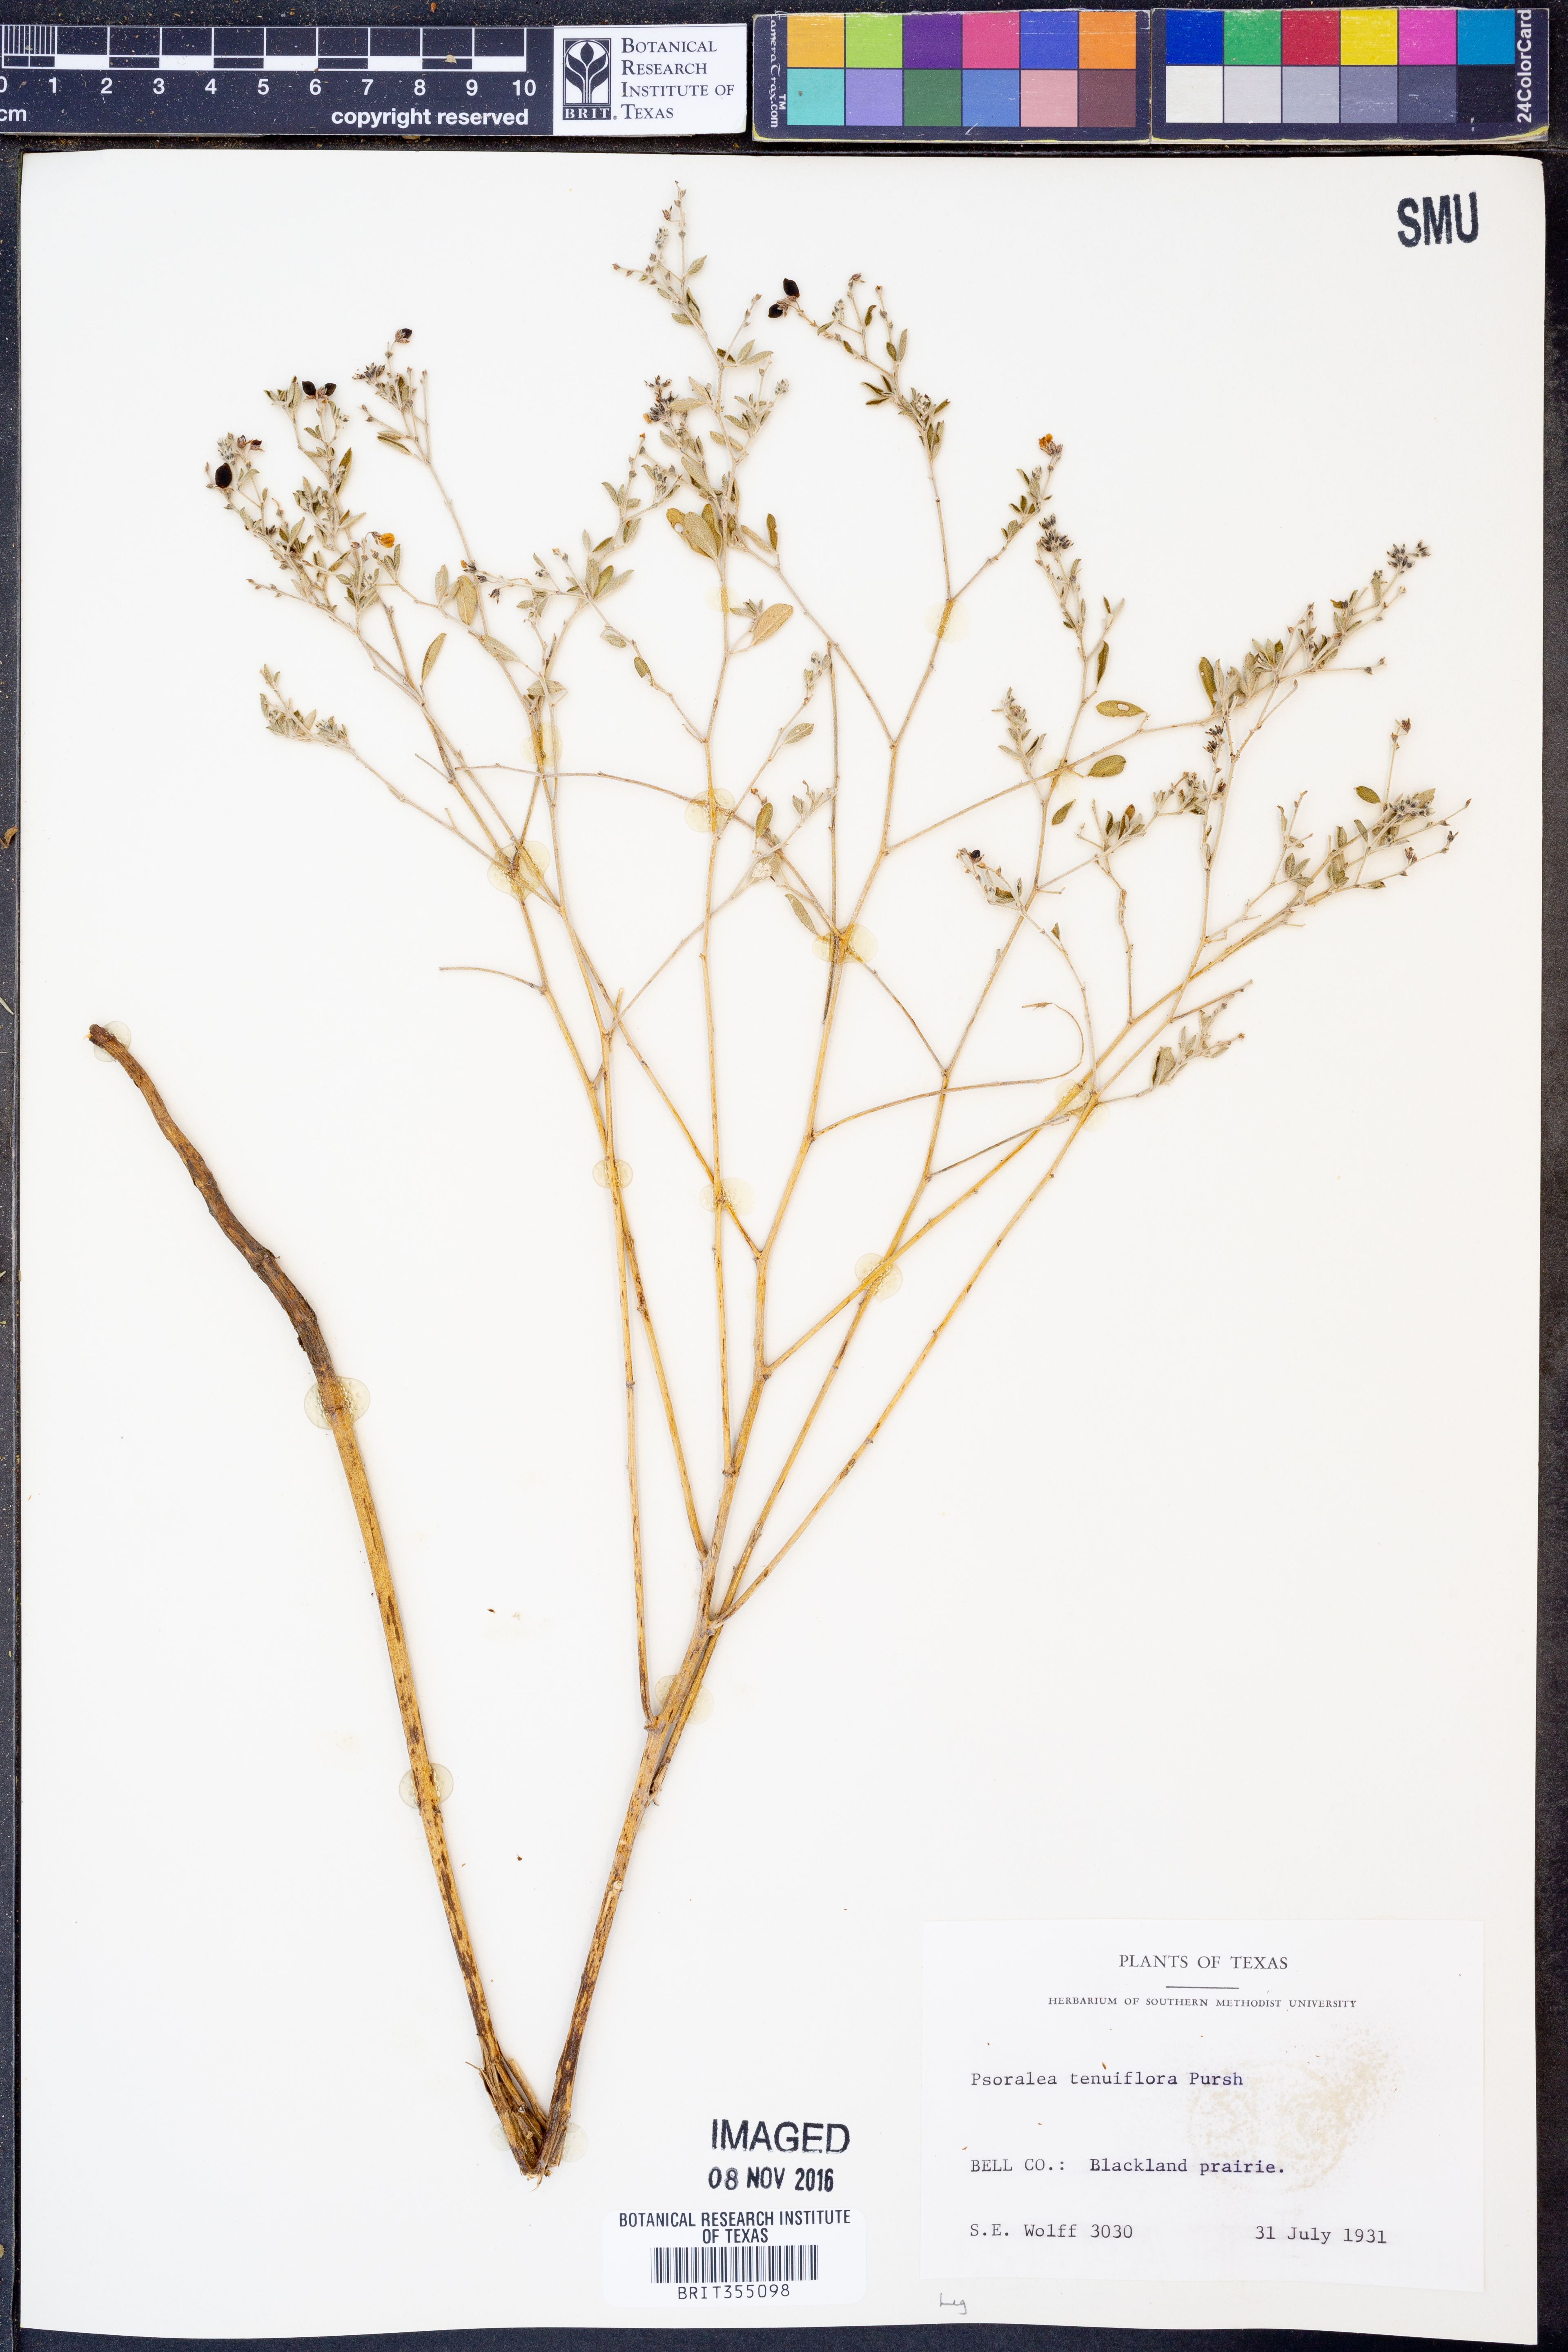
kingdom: Plantae
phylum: Tracheophyta
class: Magnoliopsida
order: Fabales
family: Fabaceae
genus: Pediomelum
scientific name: Pediomelum tenuiflorum
